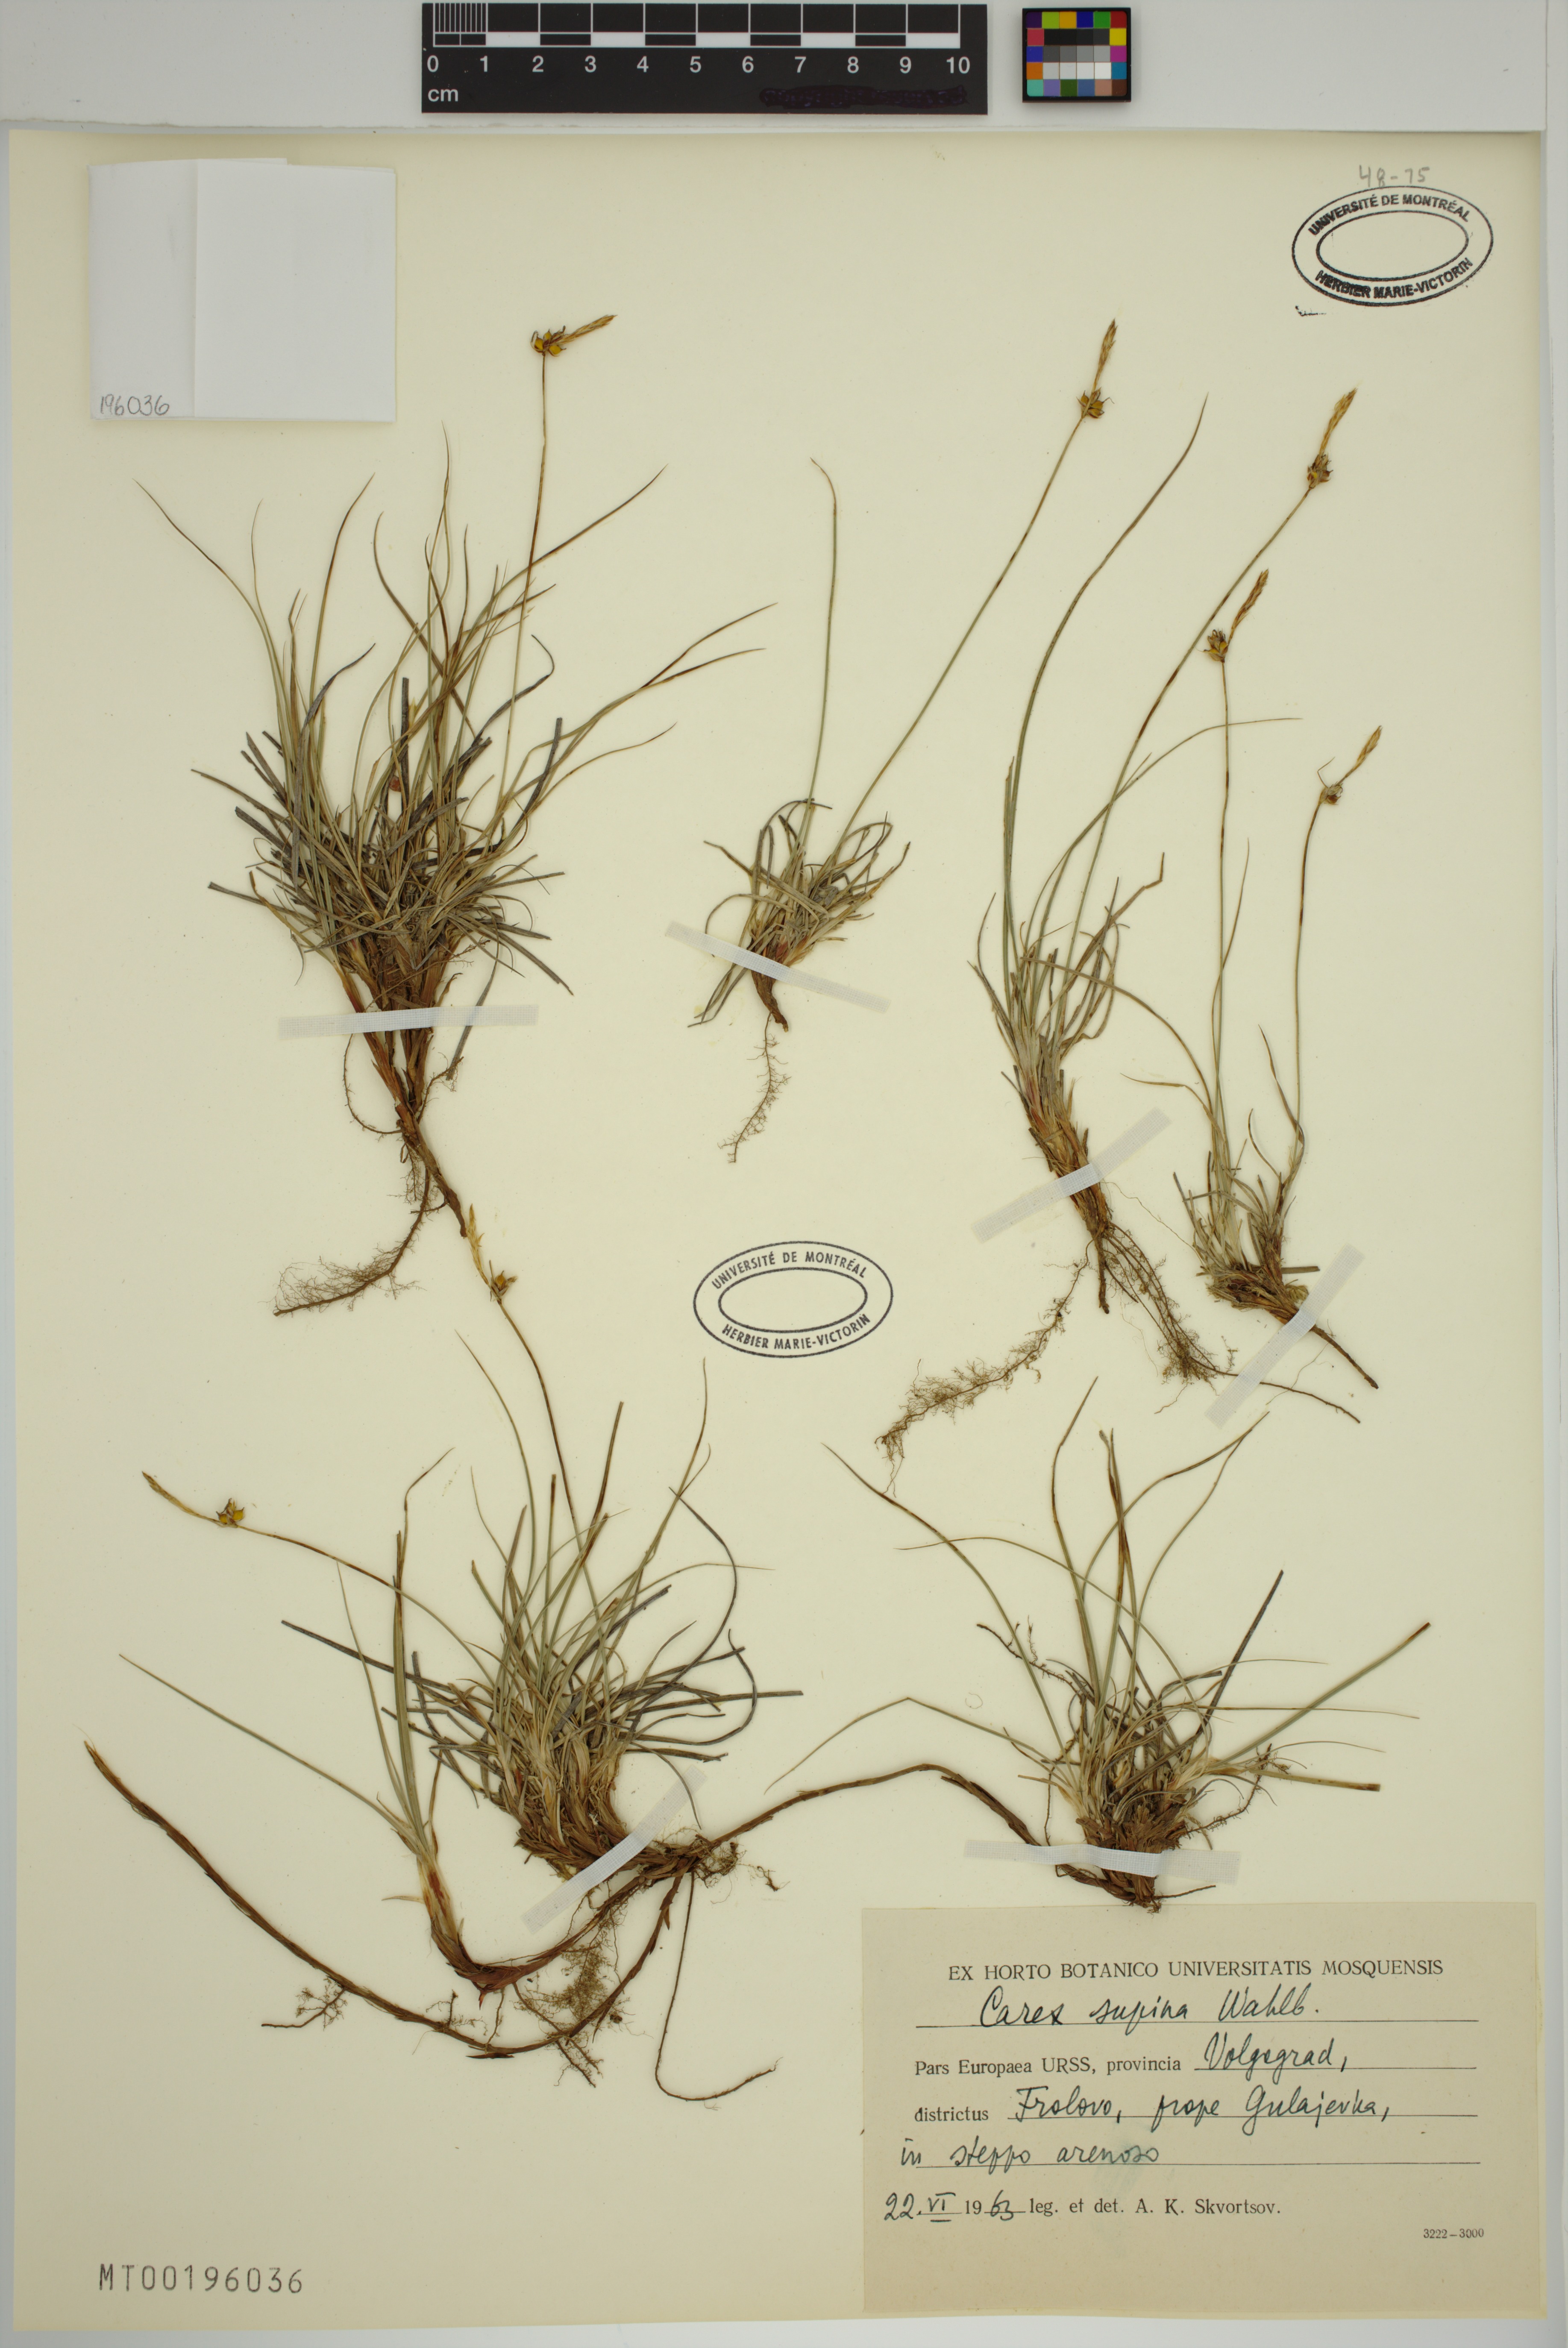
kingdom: Plantae
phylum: Tracheophyta
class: Liliopsida
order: Poales
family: Cyperaceae
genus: Carex
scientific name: Carex supina
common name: Lying-back sedge
